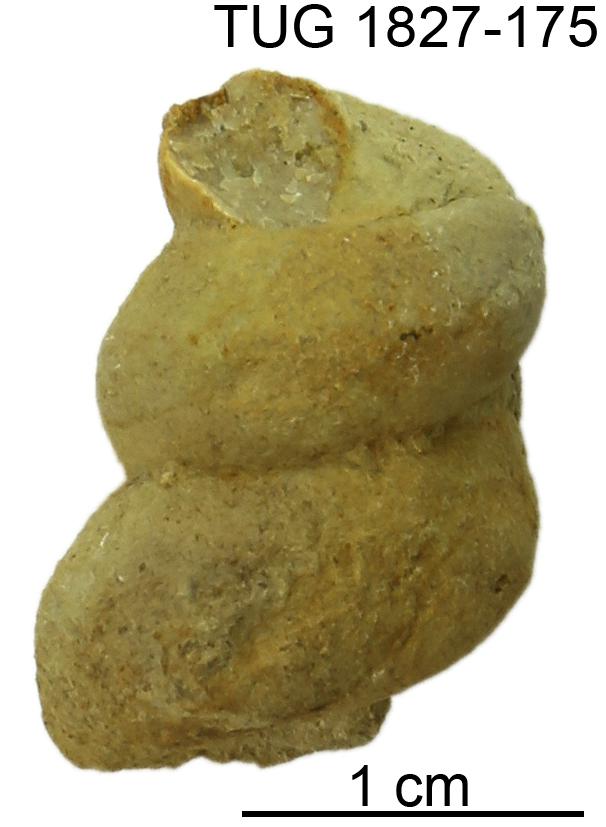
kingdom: Animalia
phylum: Mollusca
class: Gastropoda
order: Pleurotomariida
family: Murchisoniidae
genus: Hormotoma
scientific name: Hormotoma
